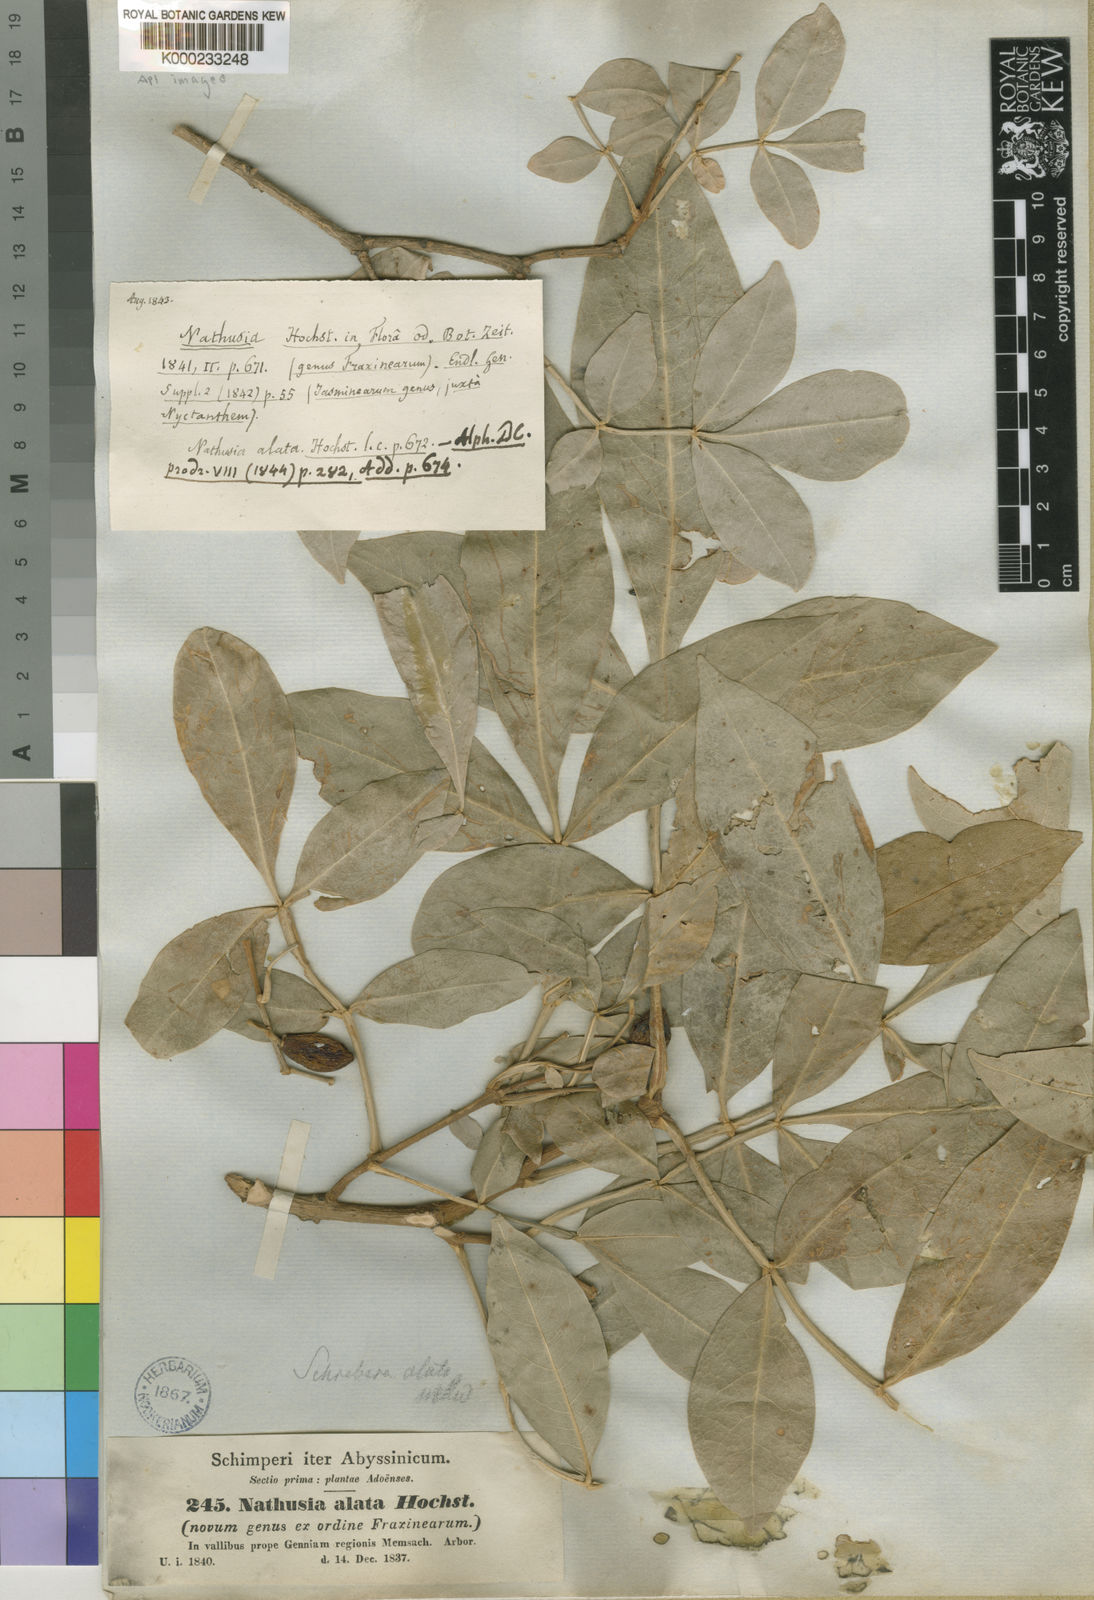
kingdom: Plantae
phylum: Tracheophyta
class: Magnoliopsida
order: Lamiales
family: Oleaceae
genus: Schrebera
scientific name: Schrebera alata
